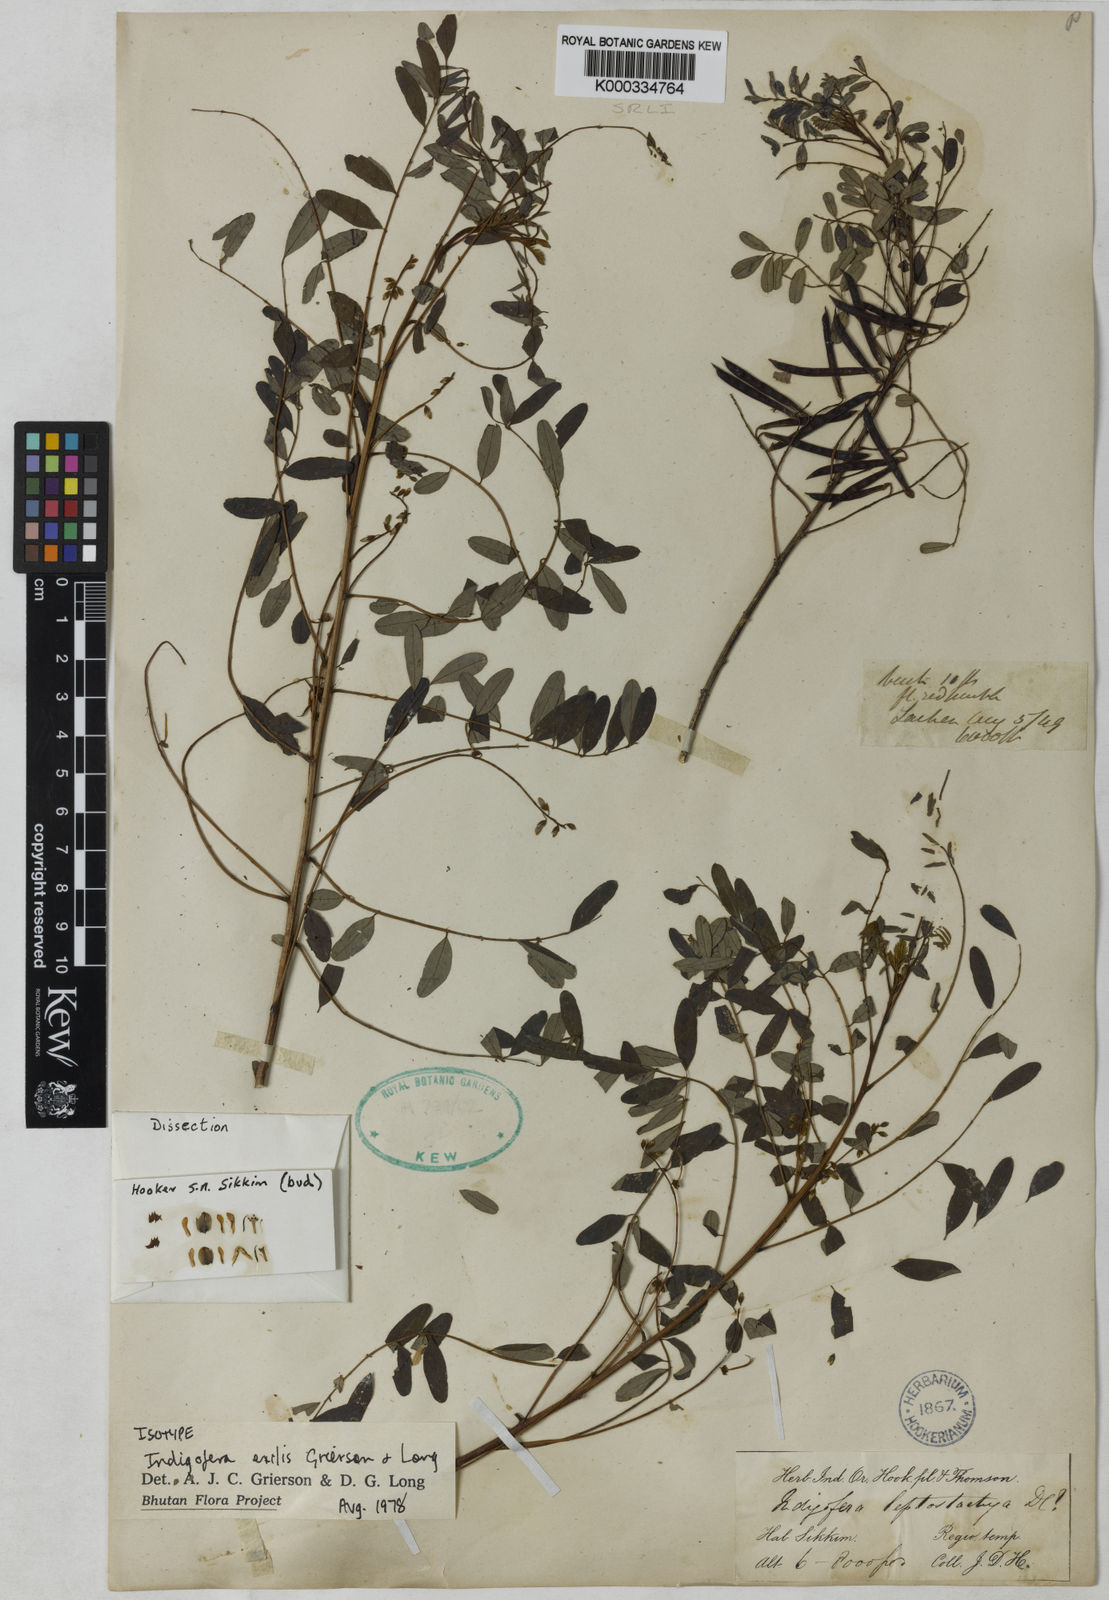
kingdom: Plantae
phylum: Tracheophyta
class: Magnoliopsida
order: Fabales
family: Fabaceae
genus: Indigofera
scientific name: Indigofera exilis
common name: Slender indigo
